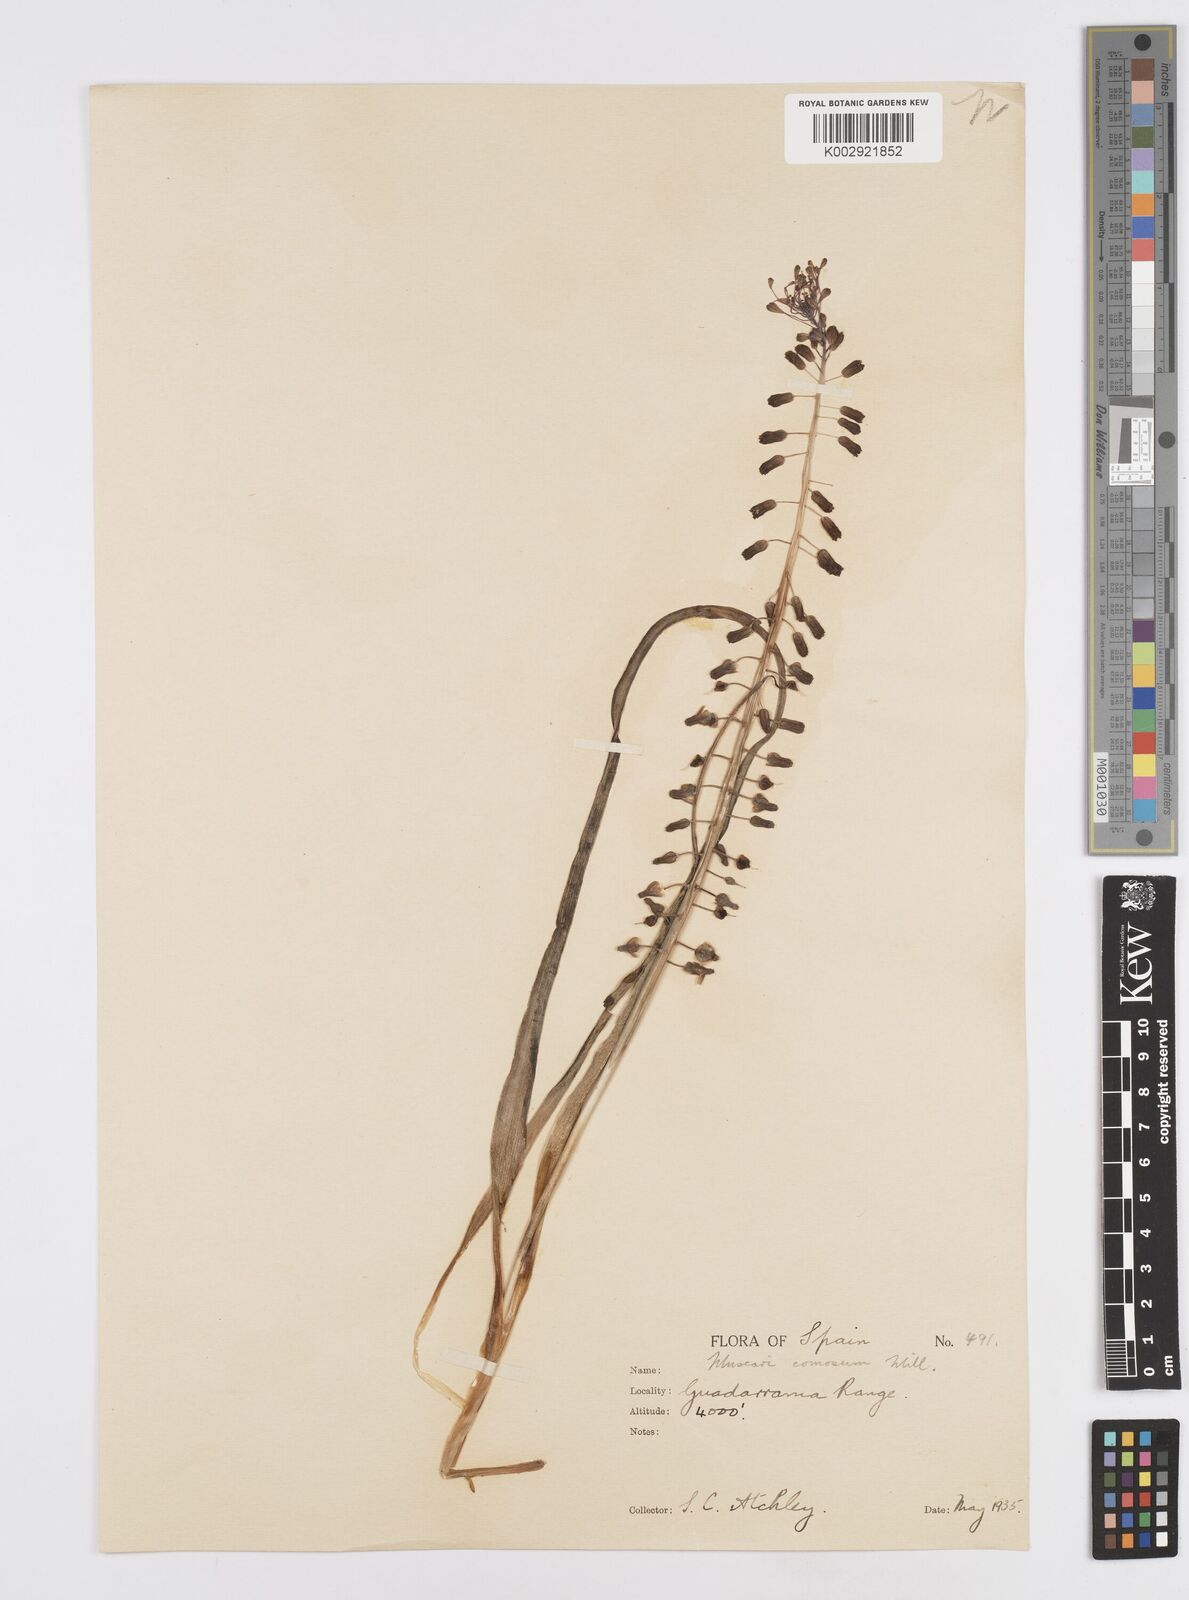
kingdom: Plantae
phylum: Tracheophyta
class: Liliopsida
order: Asparagales
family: Asparagaceae
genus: Muscari
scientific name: Muscari comosum
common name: Tassel hyacinth
